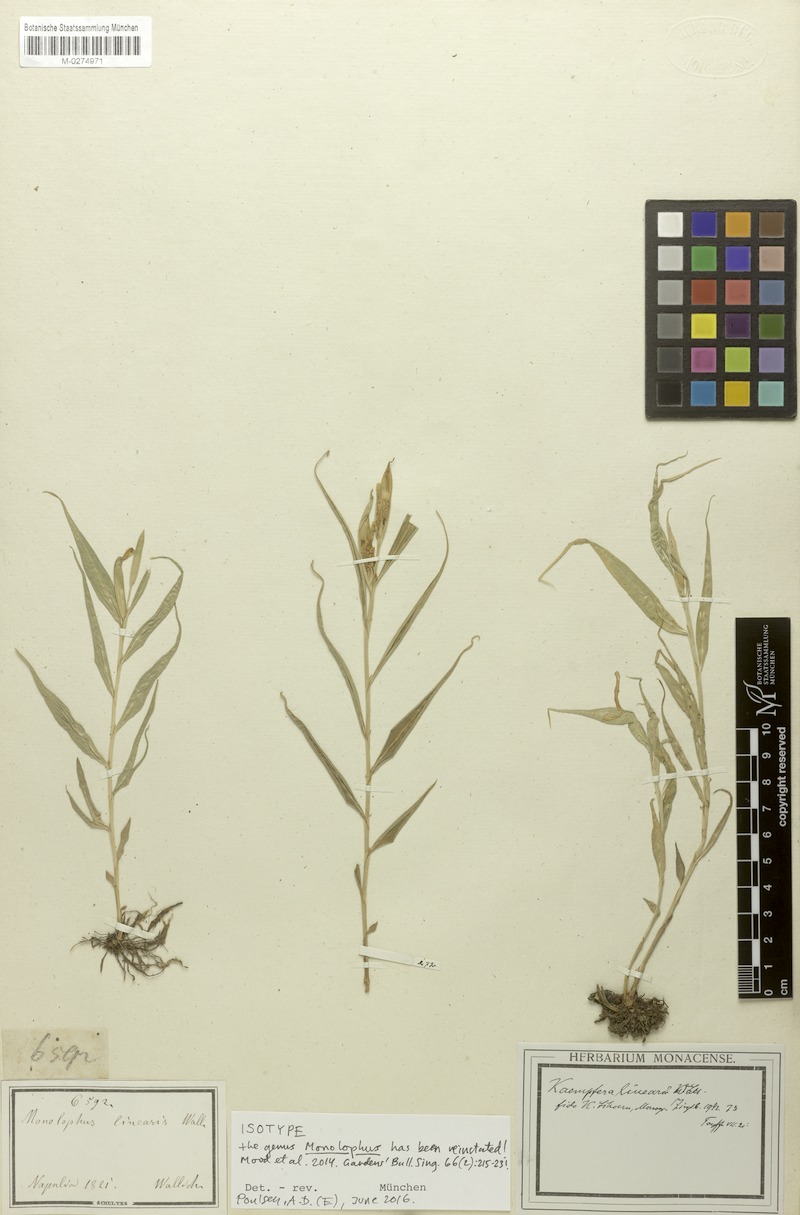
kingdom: Plantae
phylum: Tracheophyta
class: Liliopsida
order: Zingiberales
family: Zingiberaceae
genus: Caulokaempferia
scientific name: Caulokaempferia linearis
